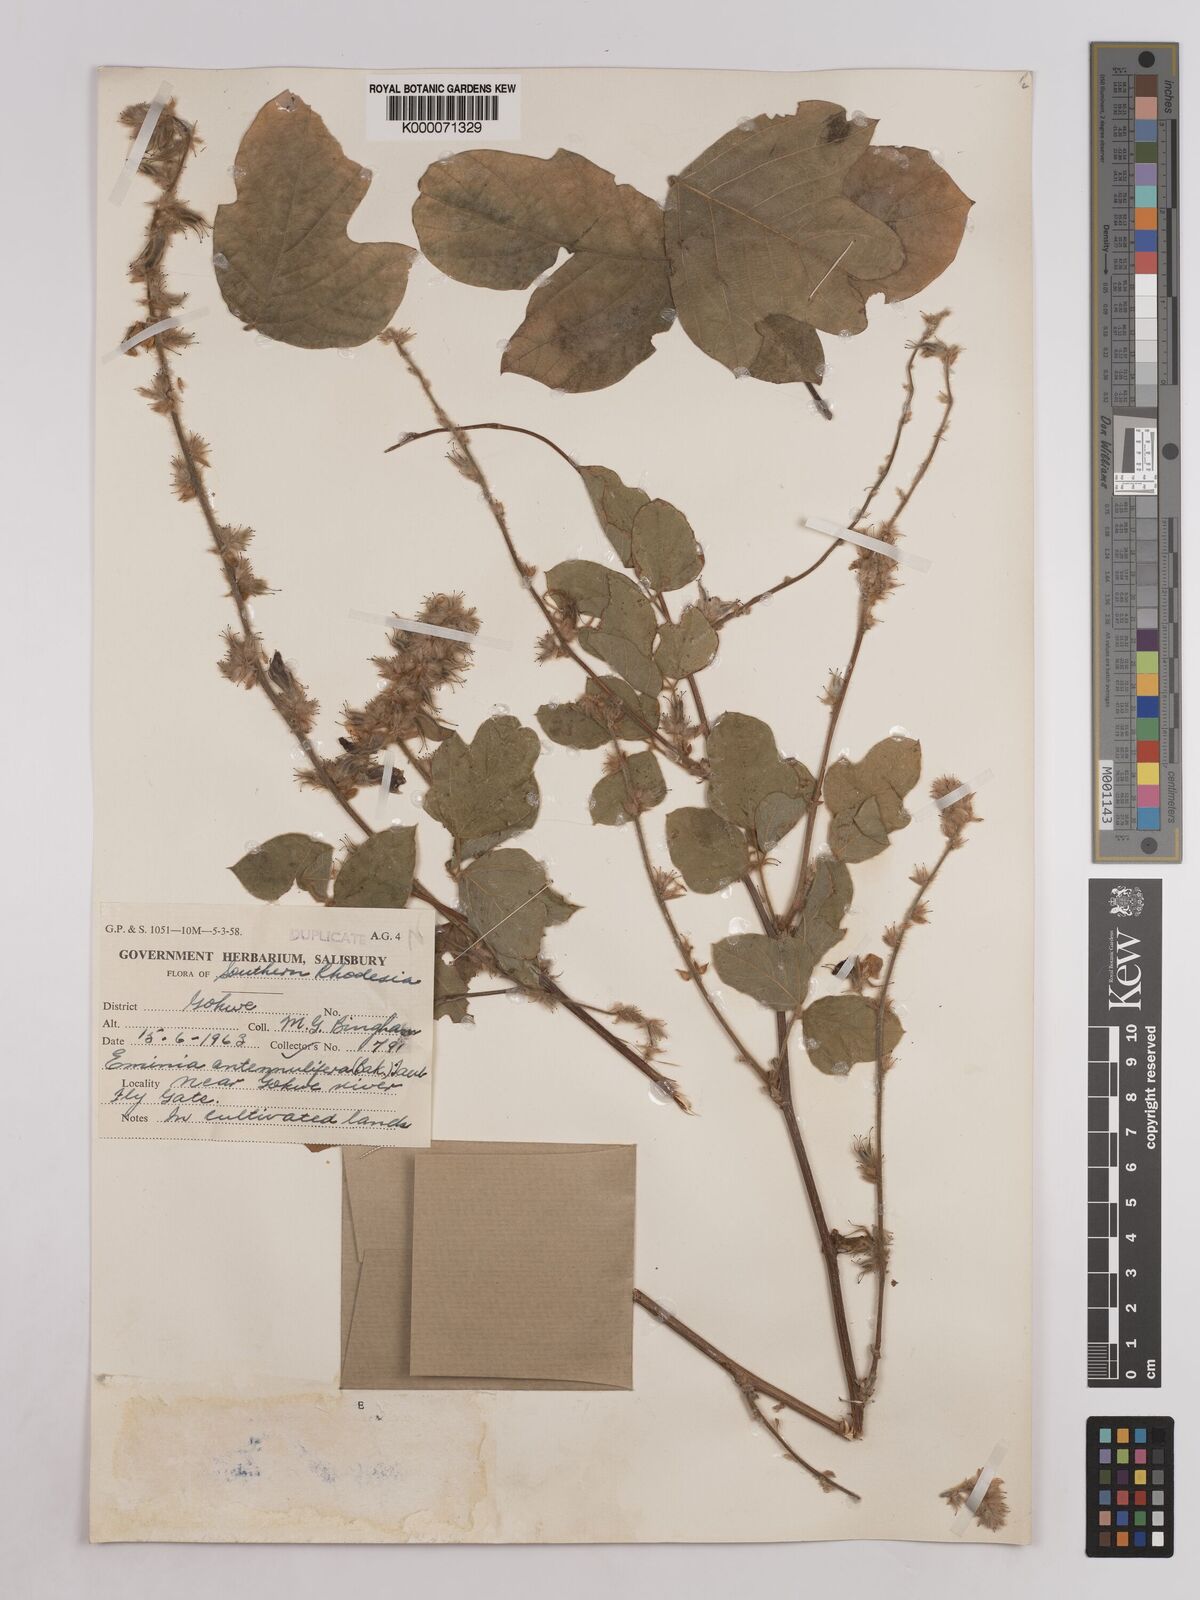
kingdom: Plantae
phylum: Tracheophyta
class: Magnoliopsida
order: Fabales
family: Fabaceae
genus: Eminia
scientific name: Eminia antennulifera
